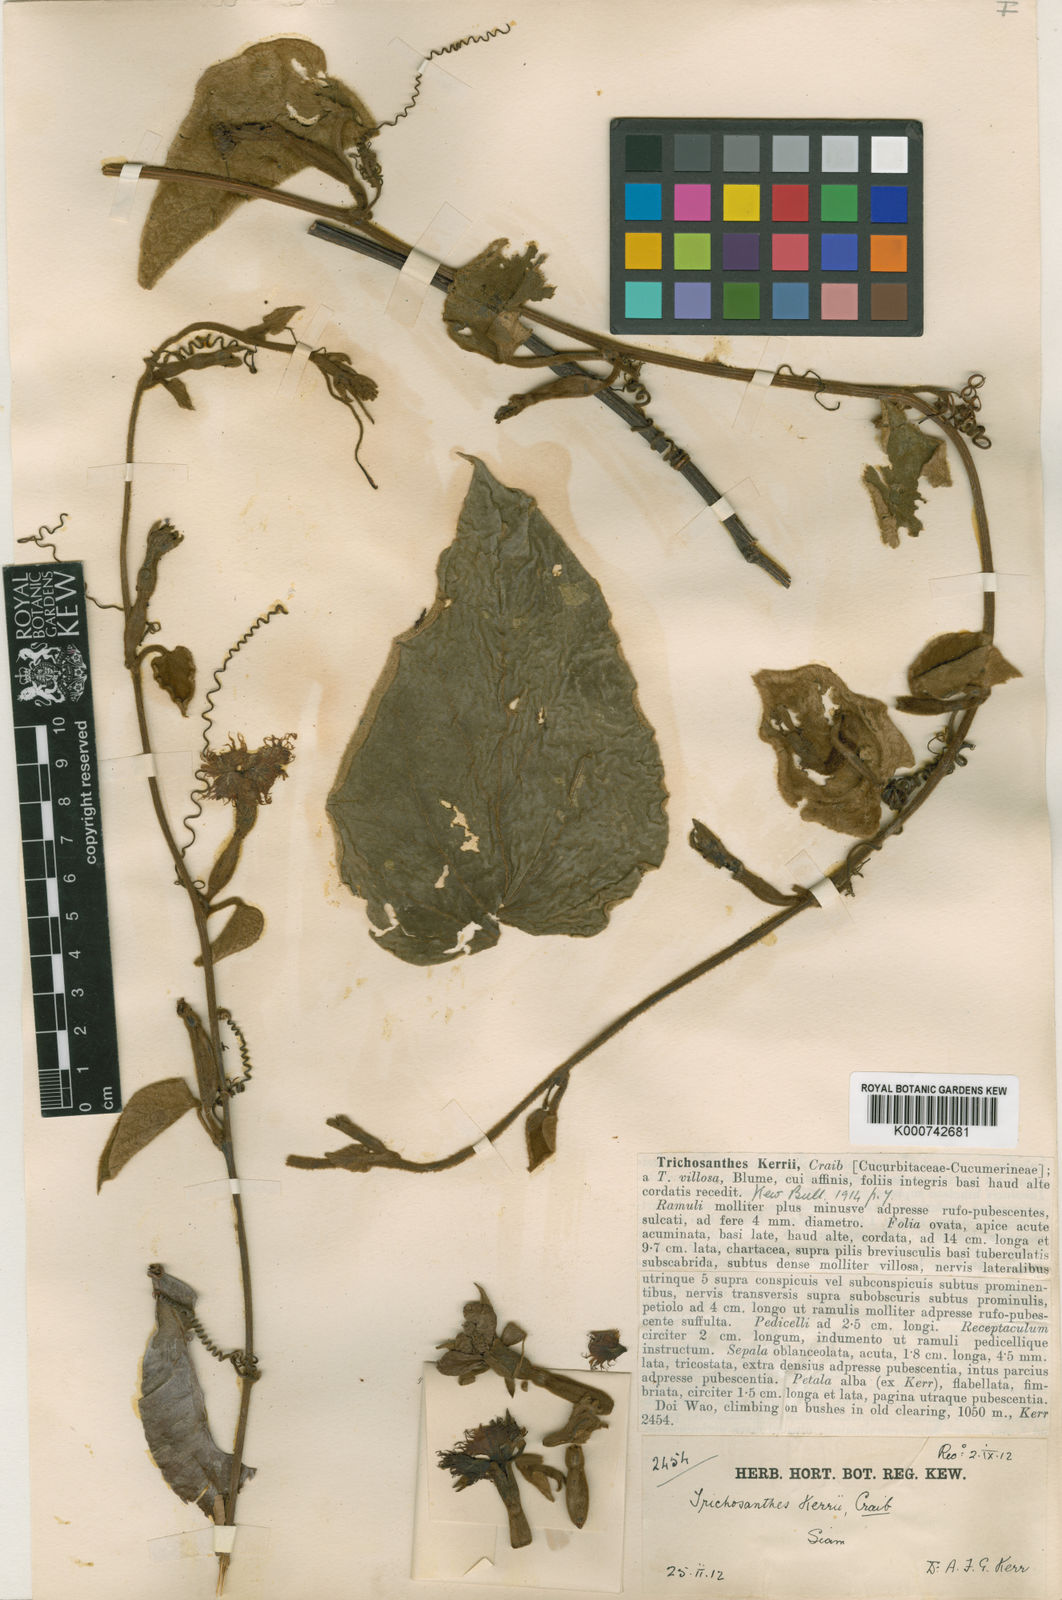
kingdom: Plantae
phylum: Tracheophyta
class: Magnoliopsida
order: Cucurbitales
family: Cucurbitaceae
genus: Trichosanthes
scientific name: Trichosanthes kerrii
